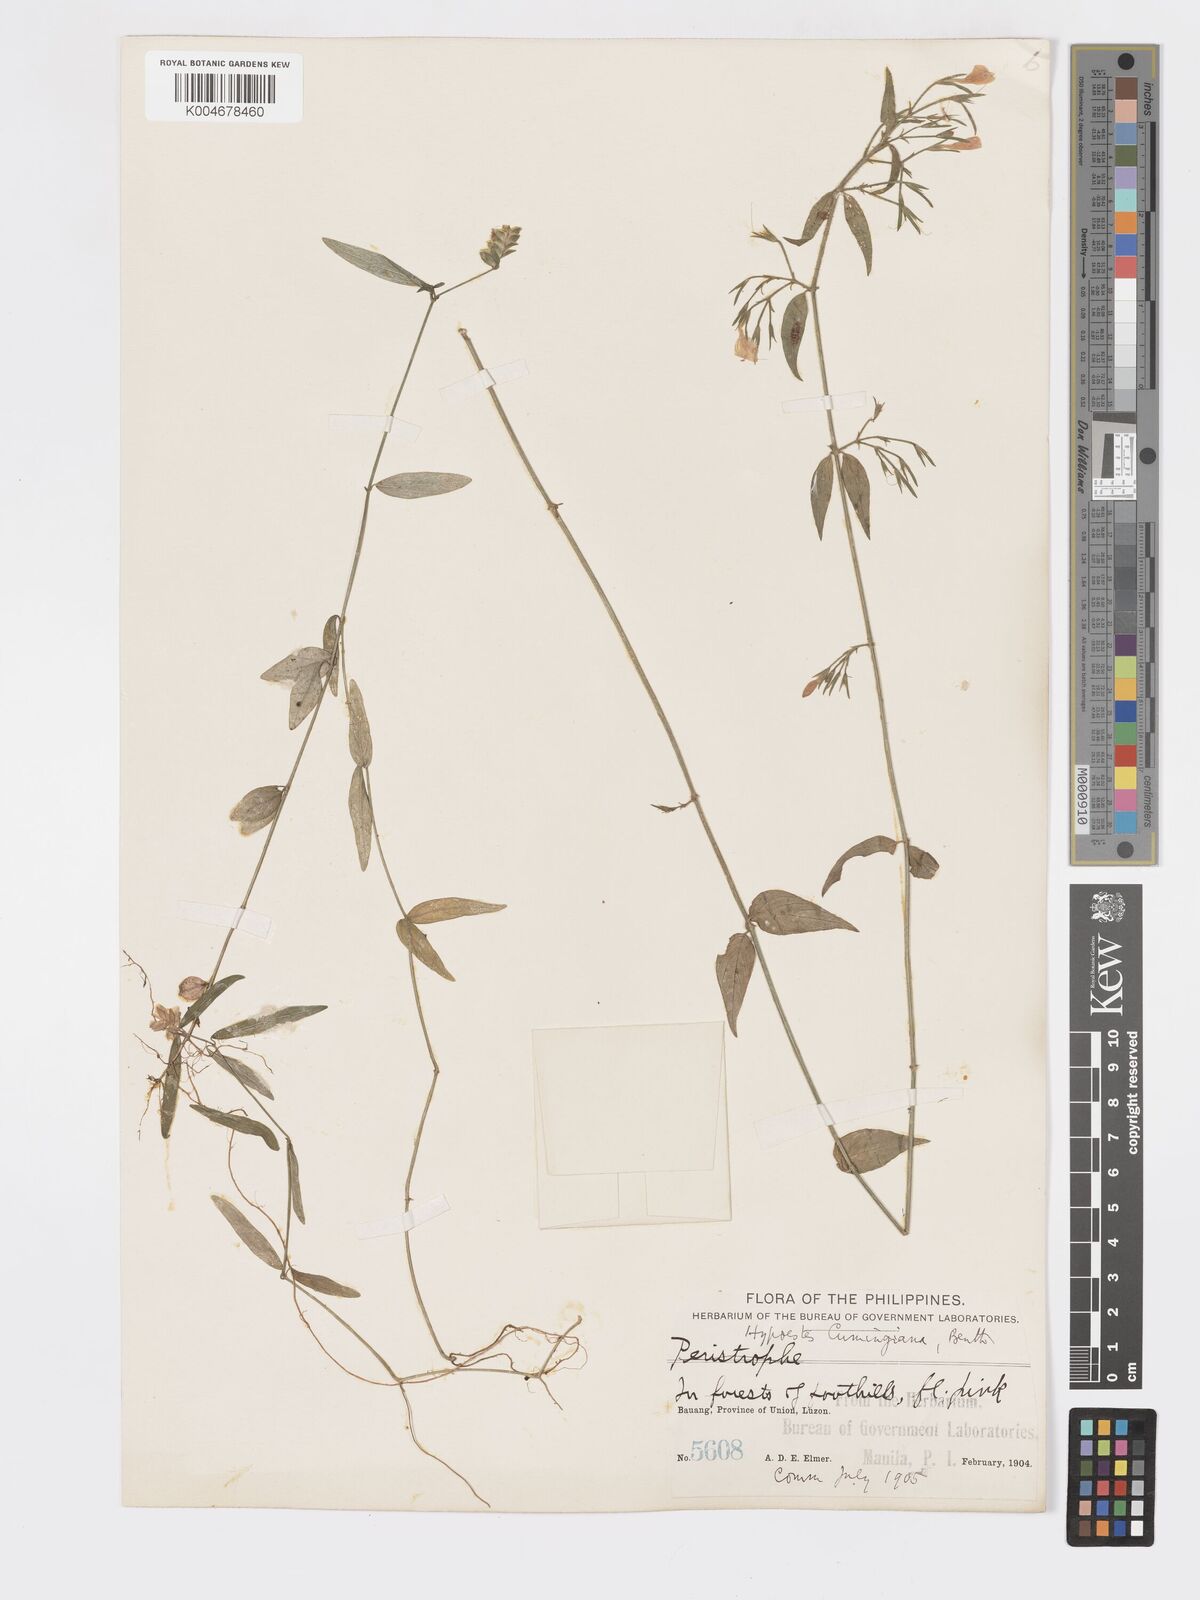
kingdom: Plantae
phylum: Tracheophyta
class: Magnoliopsida
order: Lamiales
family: Acanthaceae
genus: Hypoestes
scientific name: Hypoestes cumingiana
